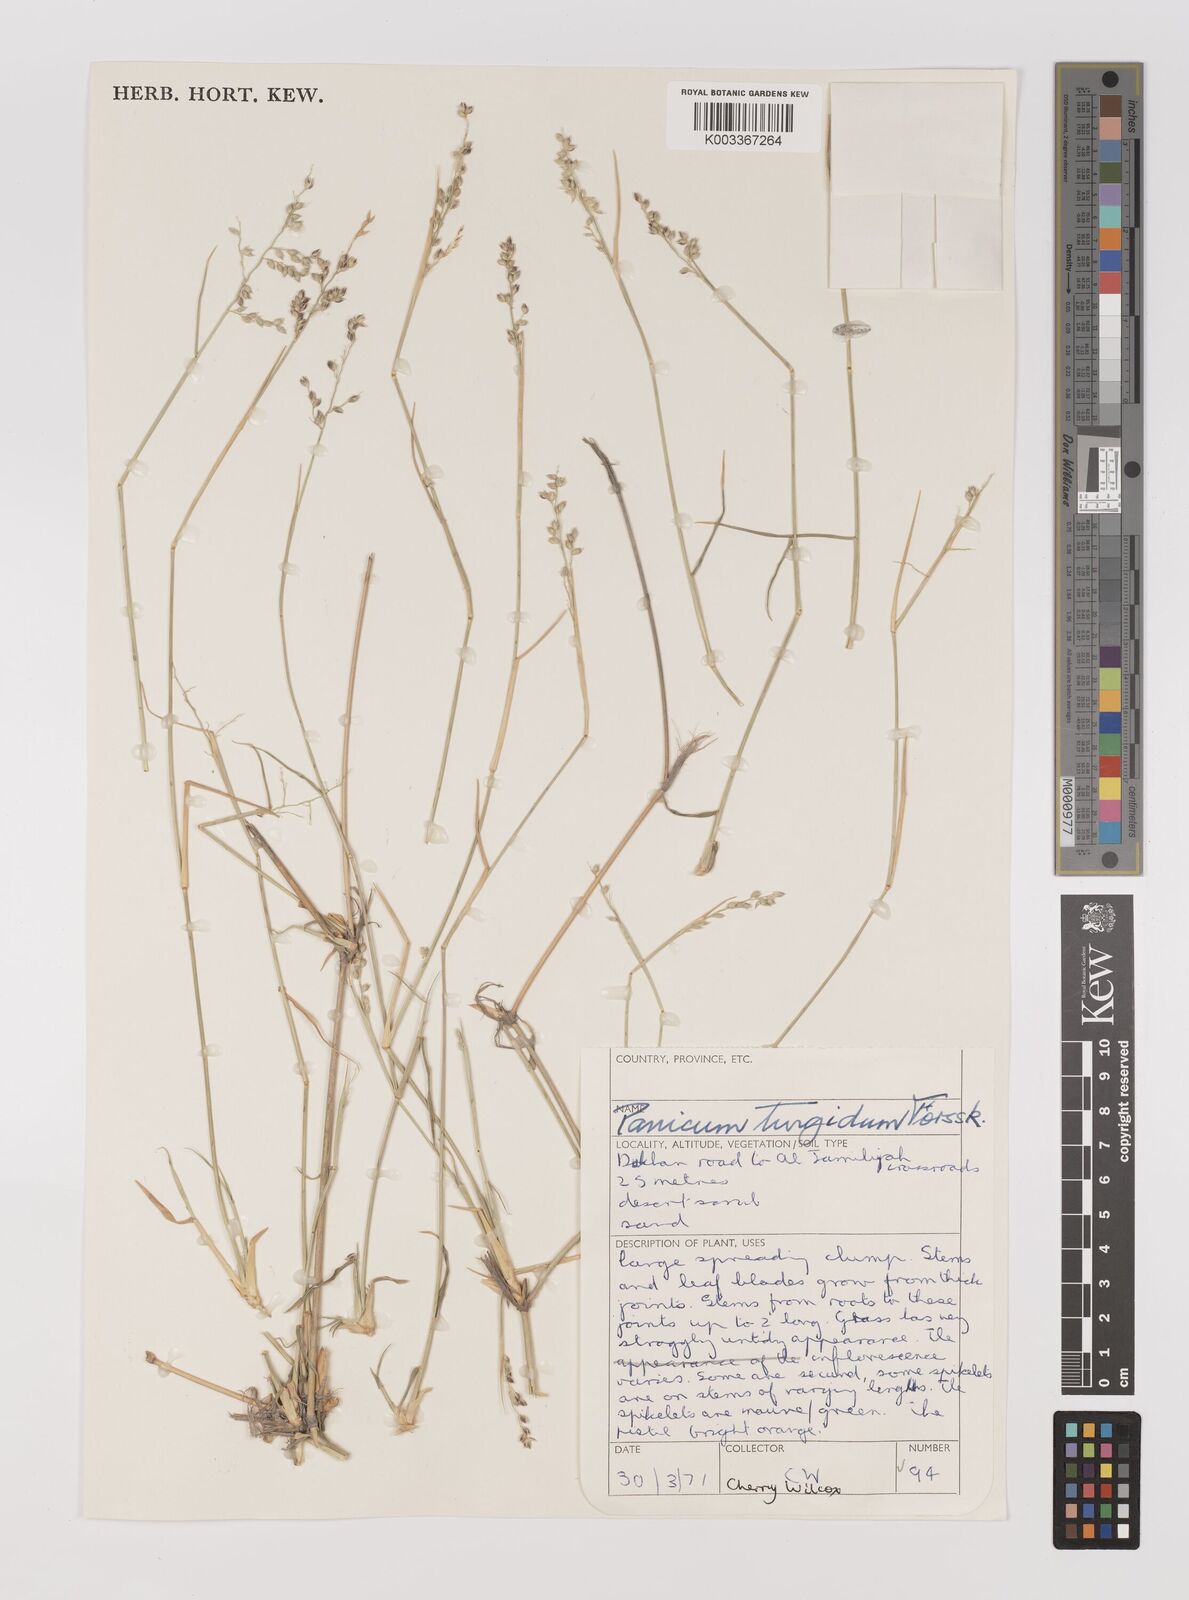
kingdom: Plantae
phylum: Tracheophyta
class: Liliopsida
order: Poales
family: Poaceae
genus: Panicum
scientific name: Panicum turgidum
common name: Desert grass
